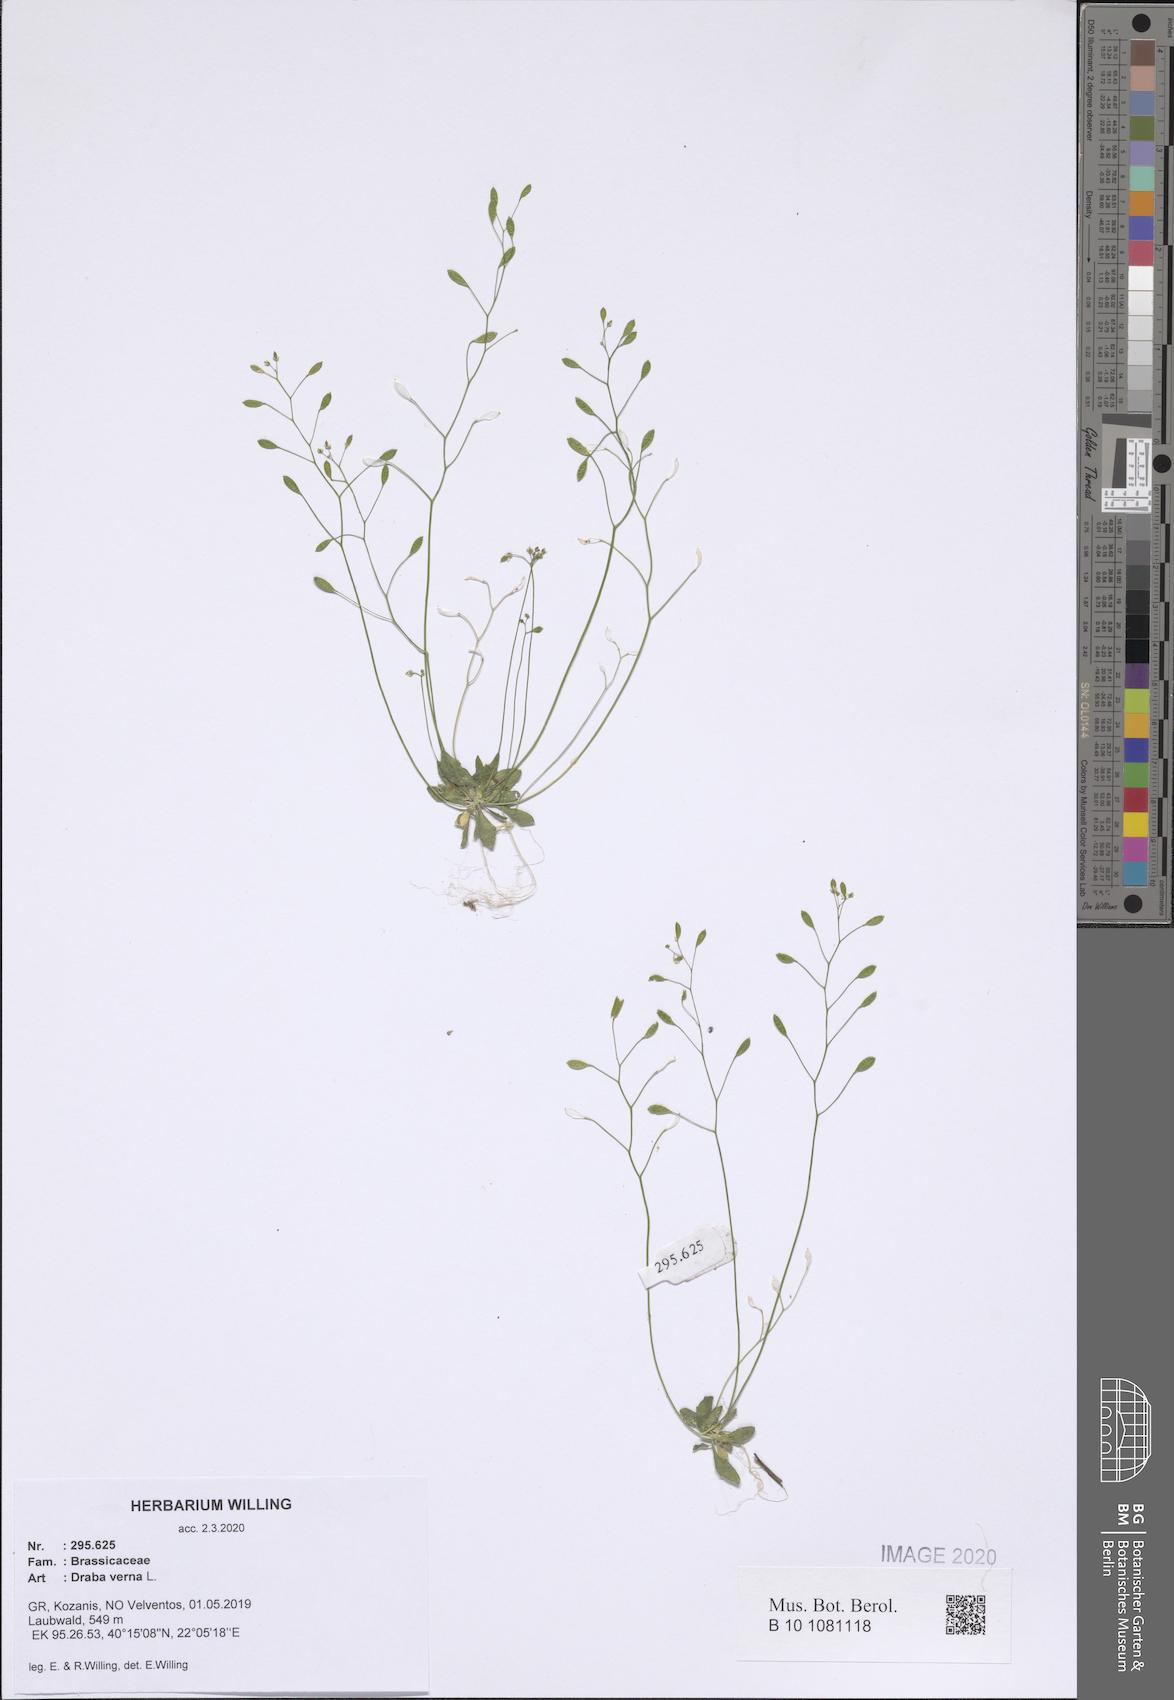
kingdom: Plantae
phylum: Tracheophyta
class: Magnoliopsida
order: Brassicales
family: Brassicaceae
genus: Draba
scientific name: Draba verna
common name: Spring draba
